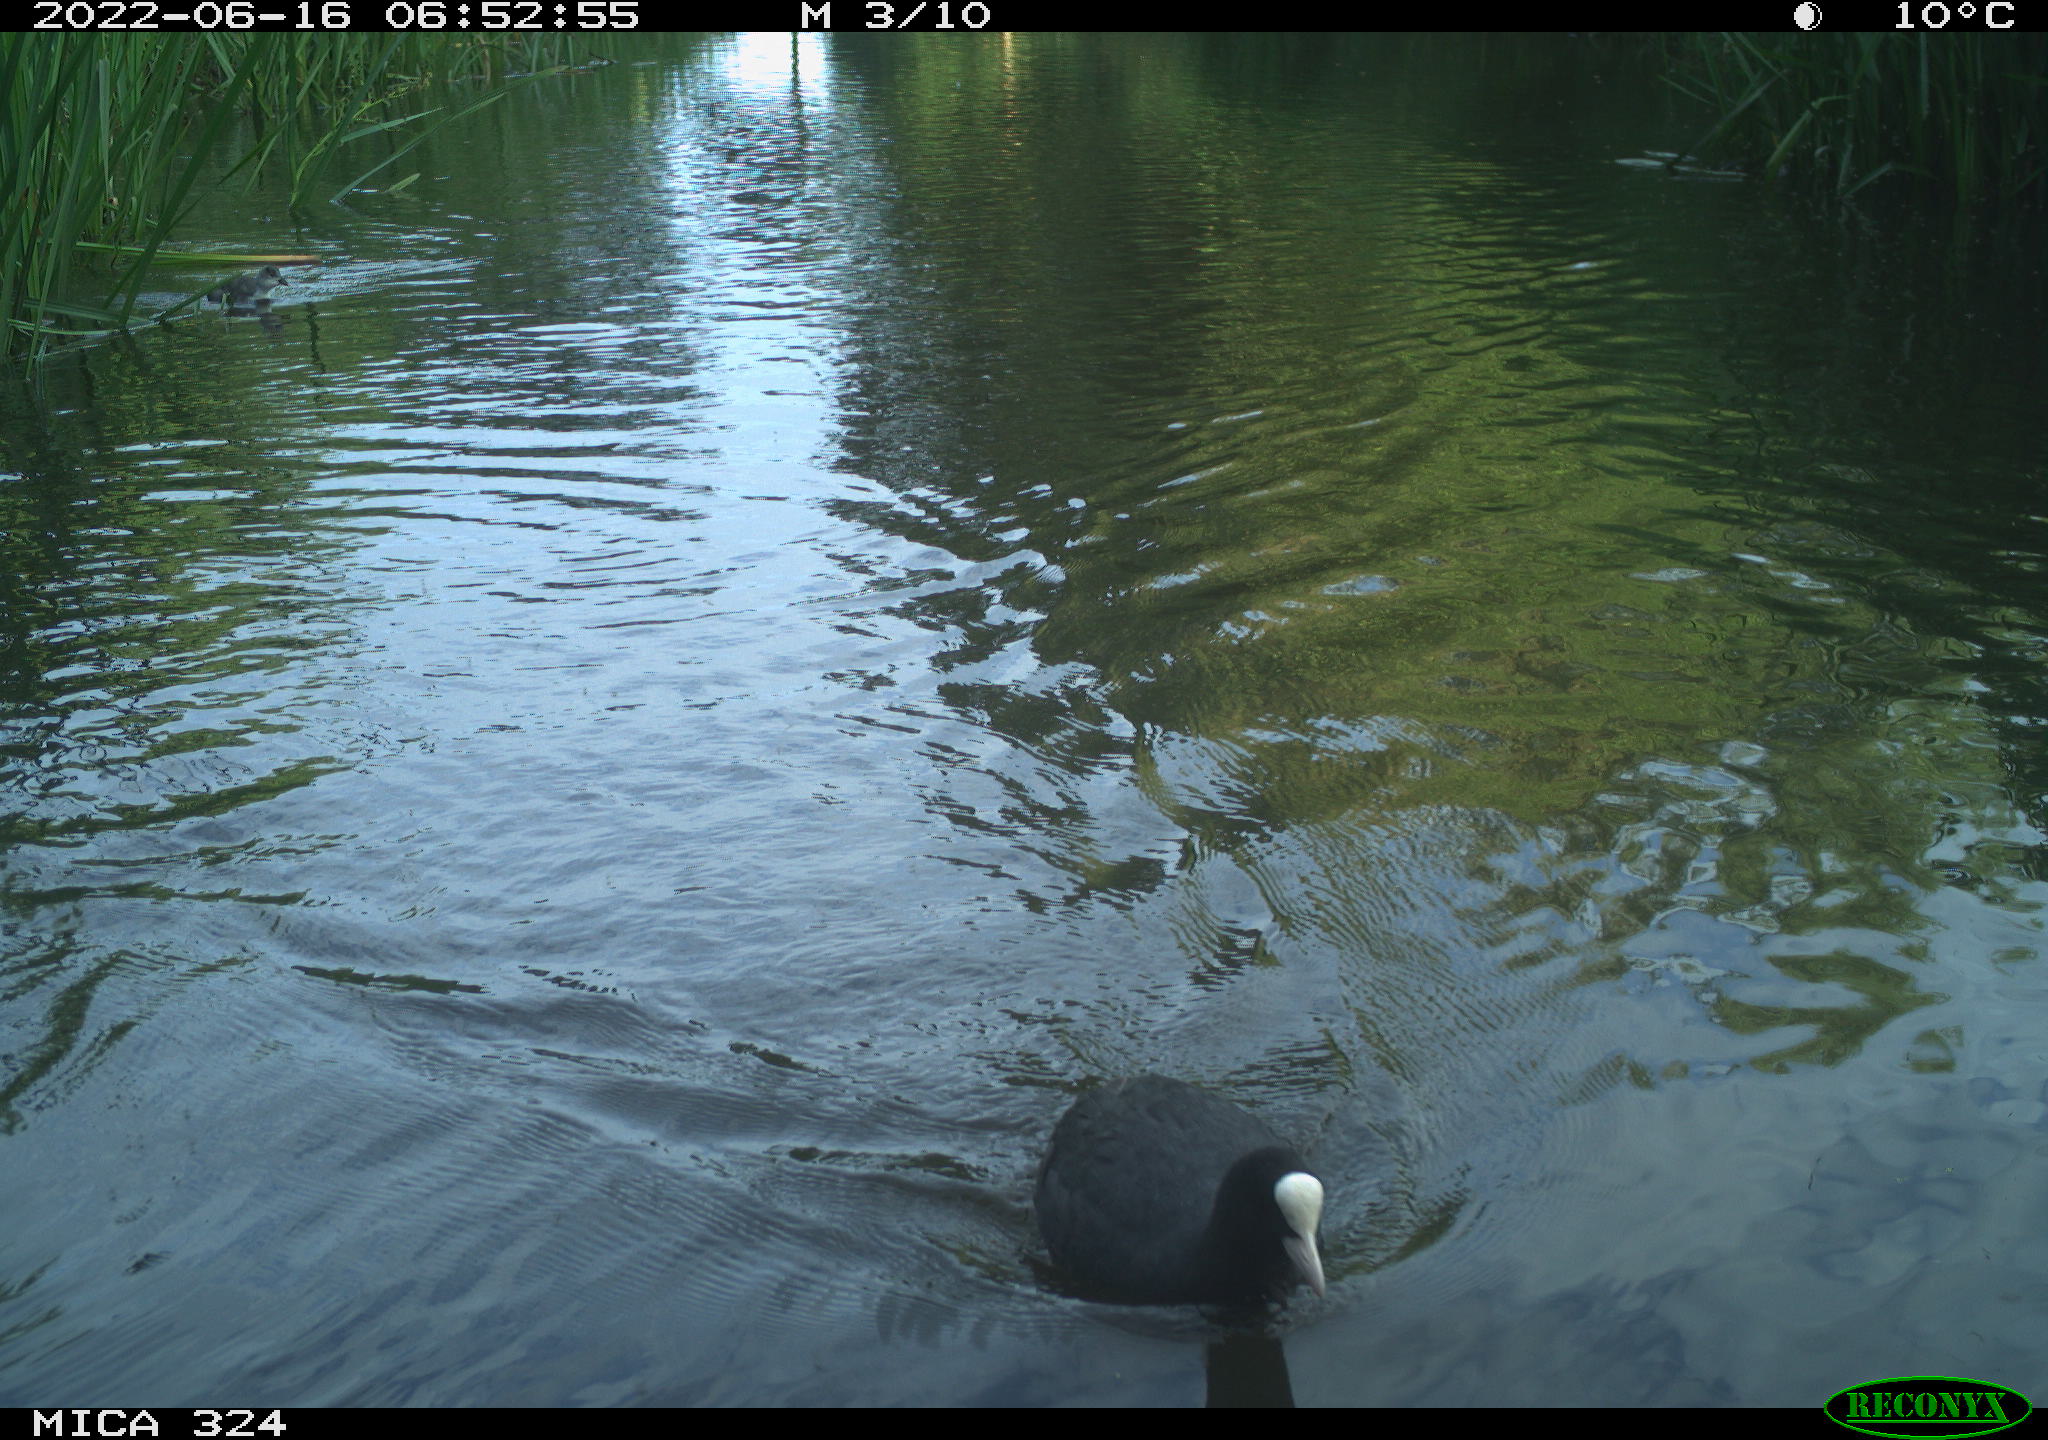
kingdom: Animalia
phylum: Chordata
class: Aves
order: Gruiformes
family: Rallidae
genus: Fulica
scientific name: Fulica atra
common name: Eurasian coot
